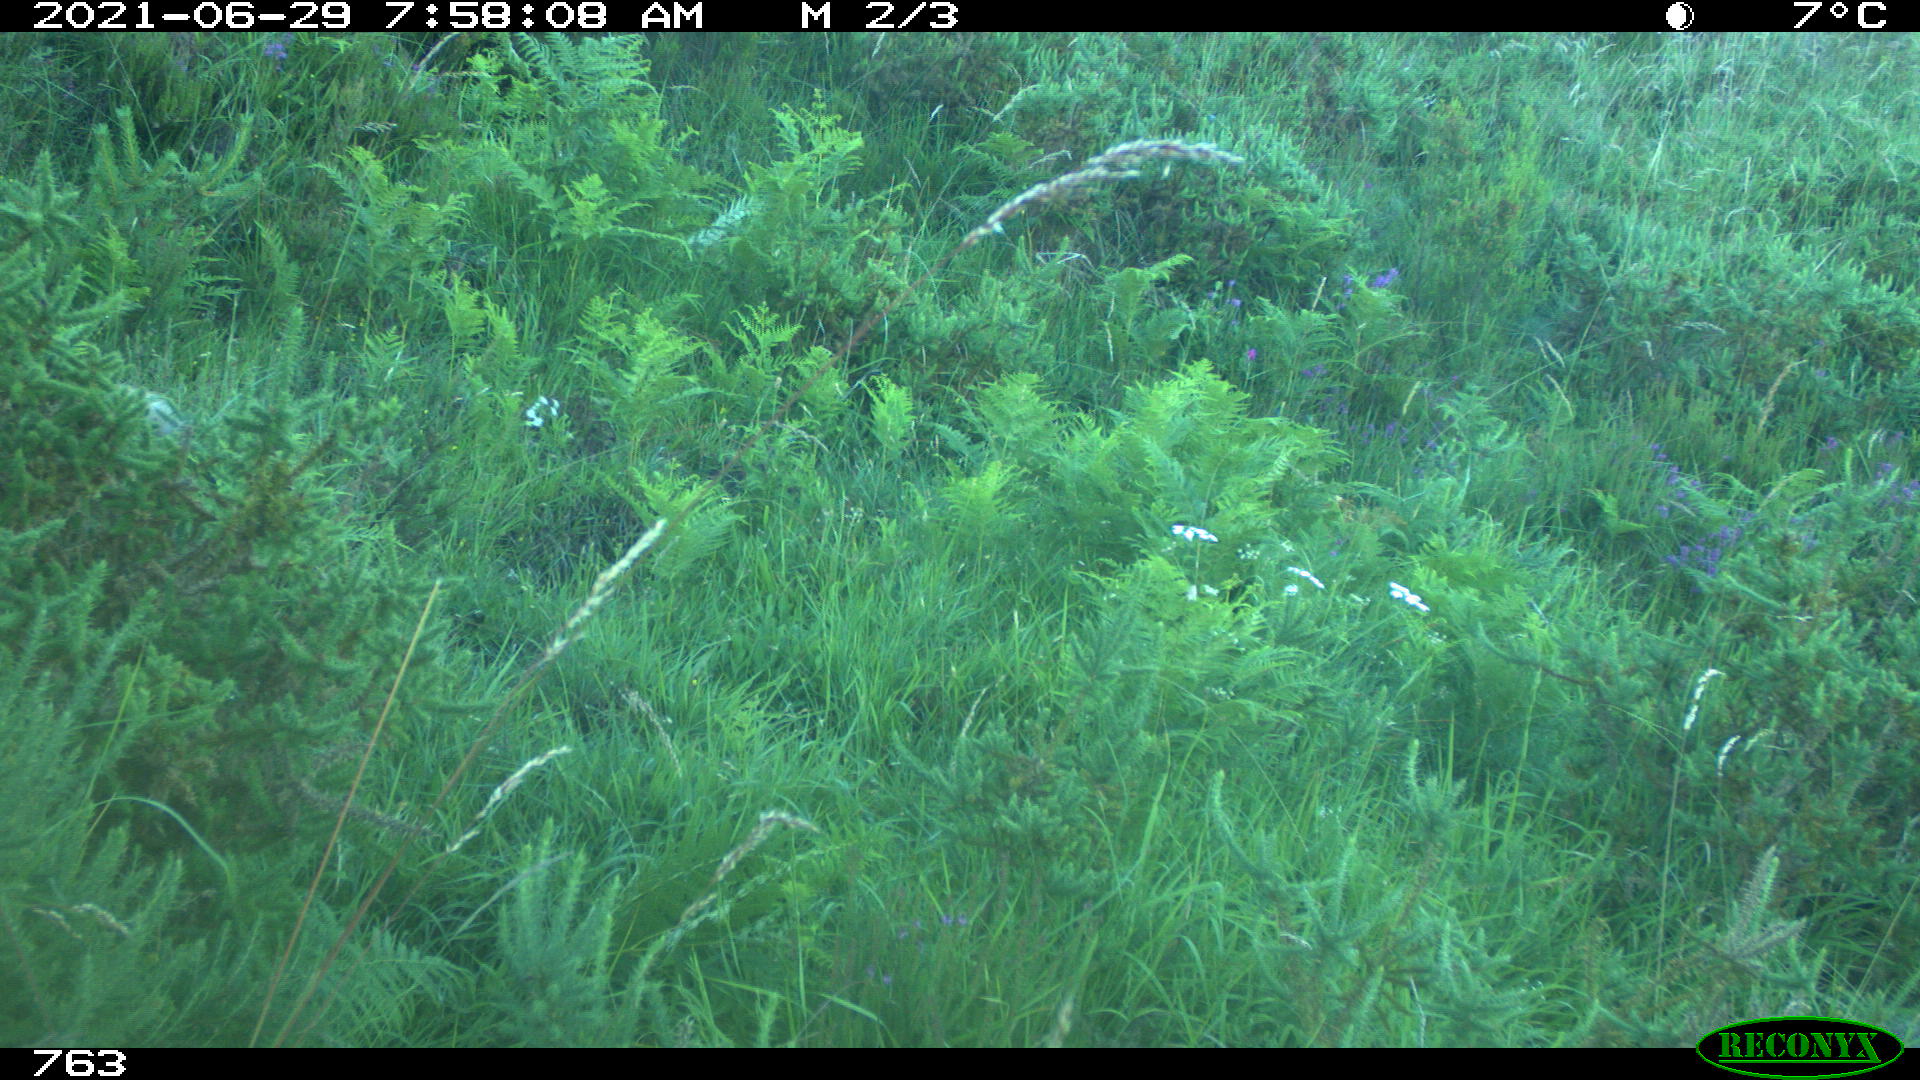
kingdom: Animalia
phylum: Chordata
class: Mammalia
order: Carnivora
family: Canidae
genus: Vulpes
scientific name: Vulpes vulpes
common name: Red fox
